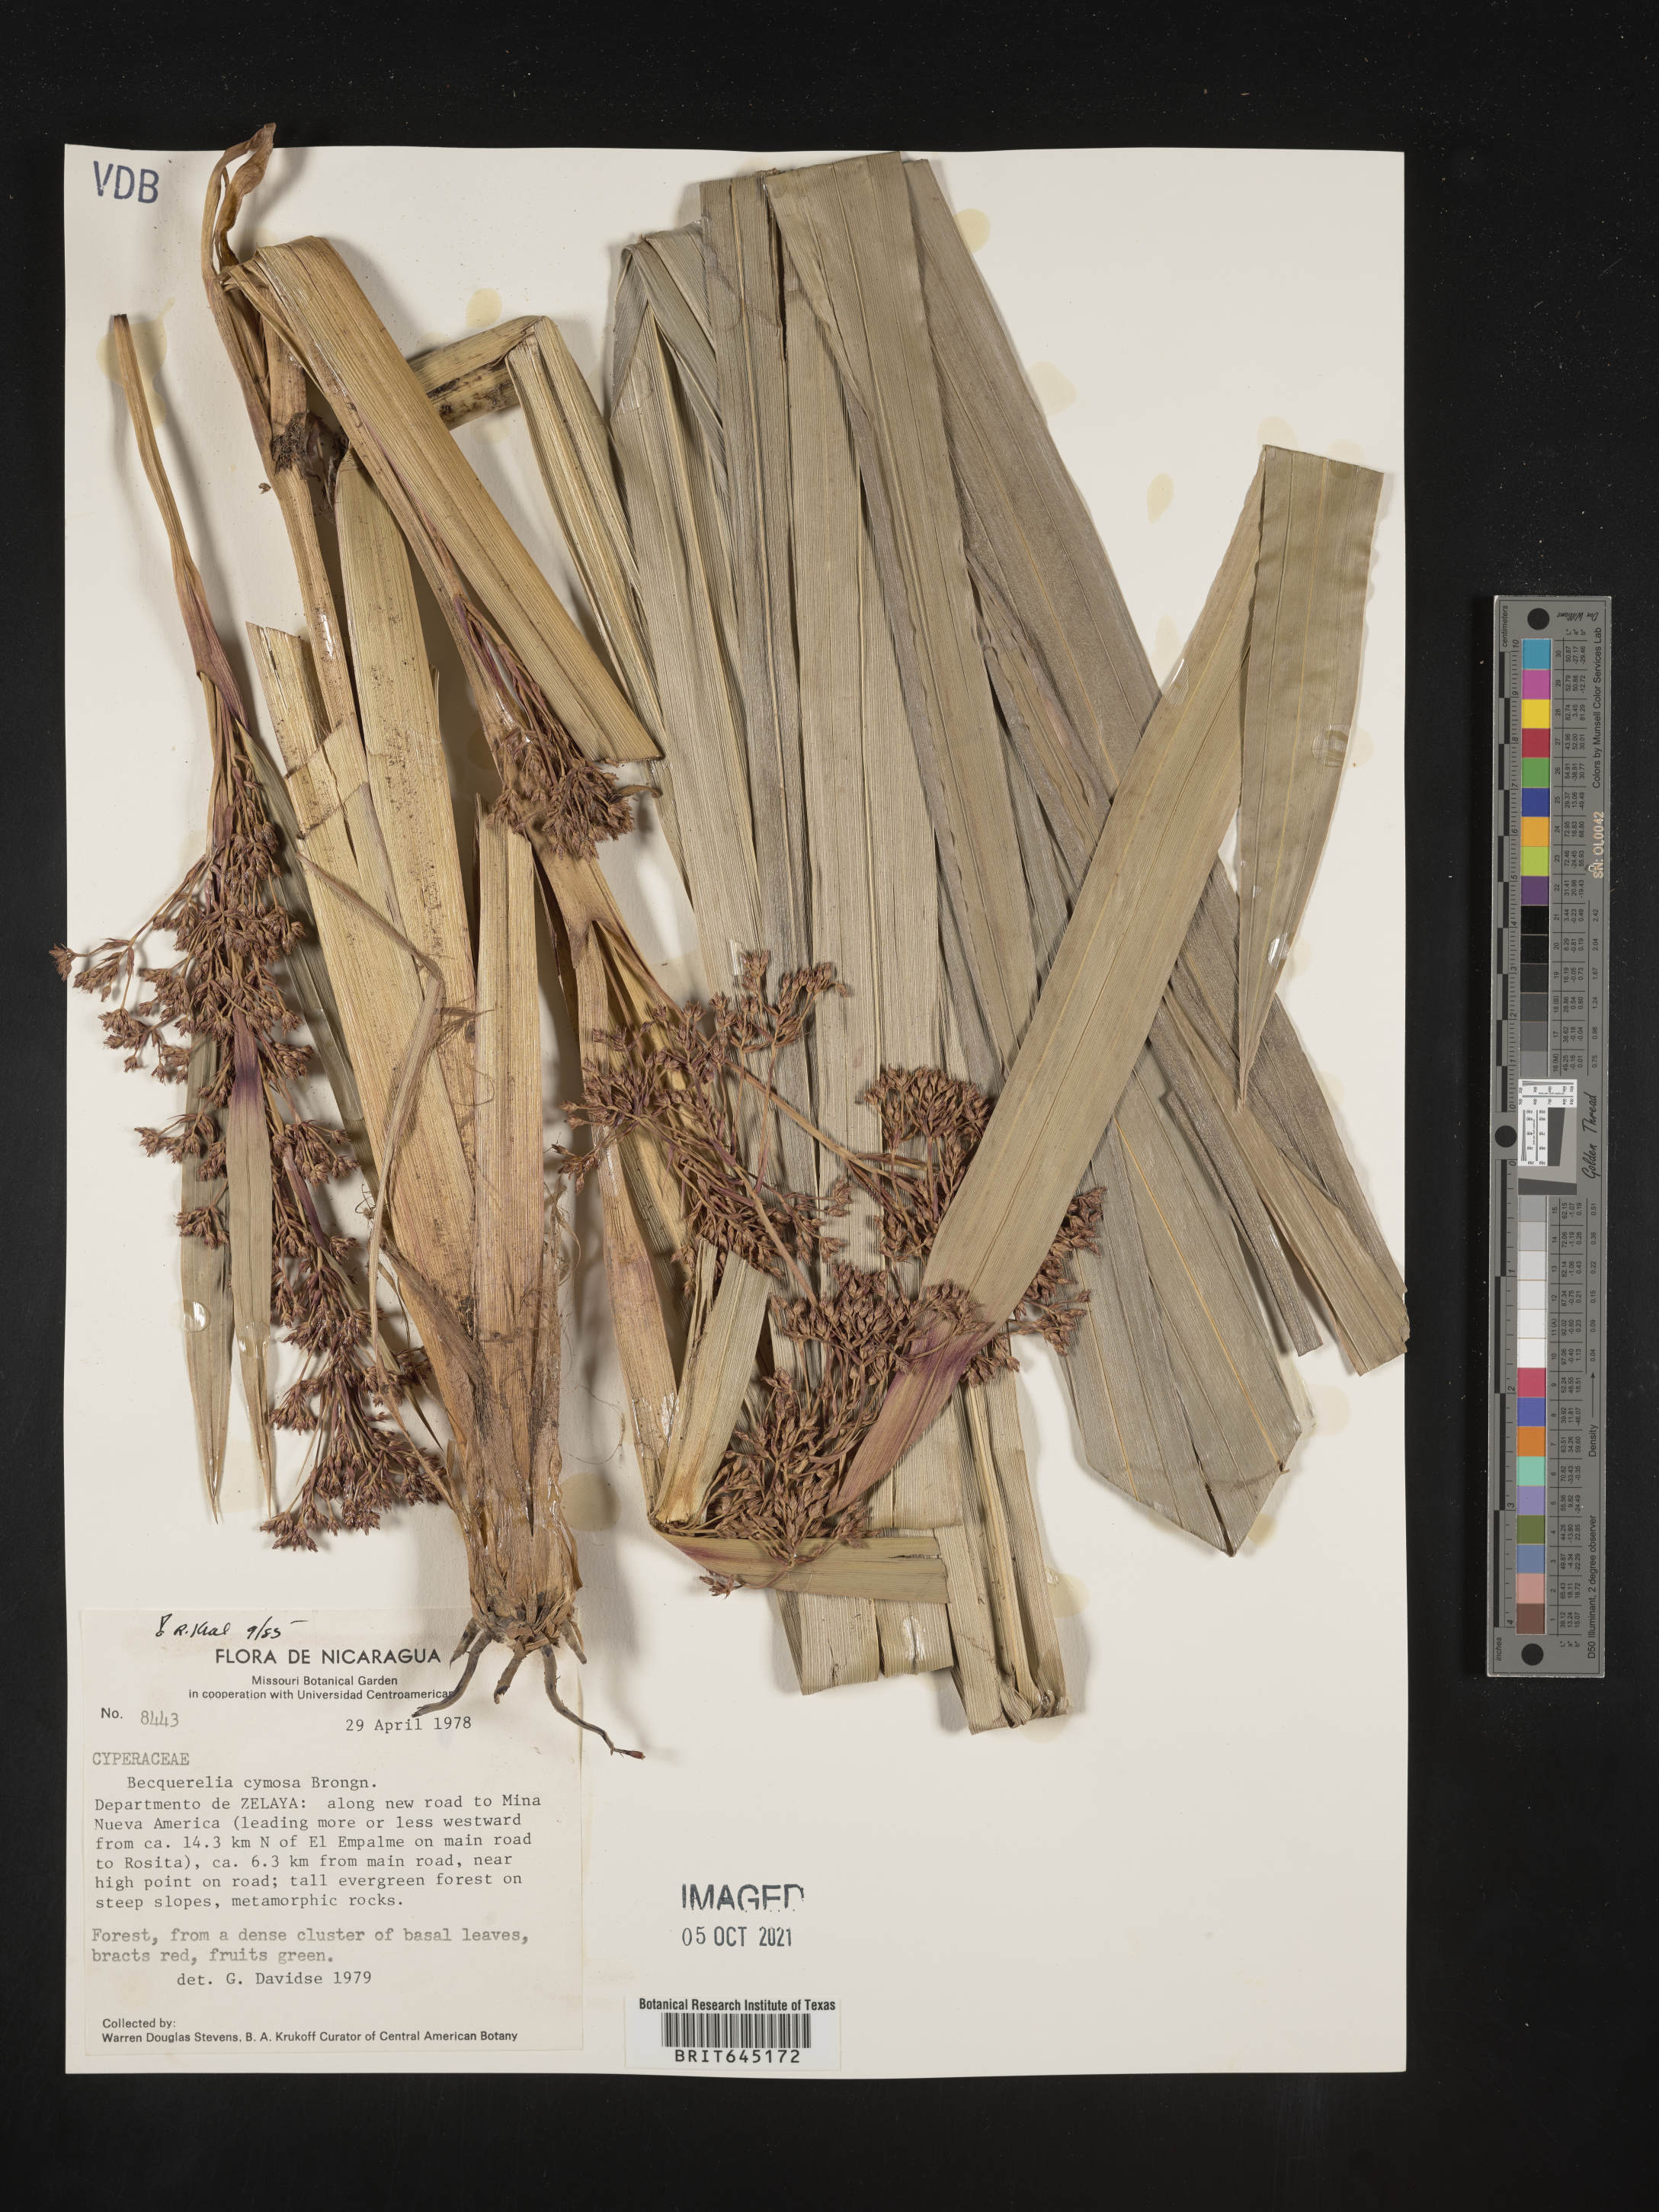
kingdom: Plantae
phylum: Tracheophyta
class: Liliopsida
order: Poales
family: Cyperaceae
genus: Becquerelia
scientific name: Becquerelia merkeliana
